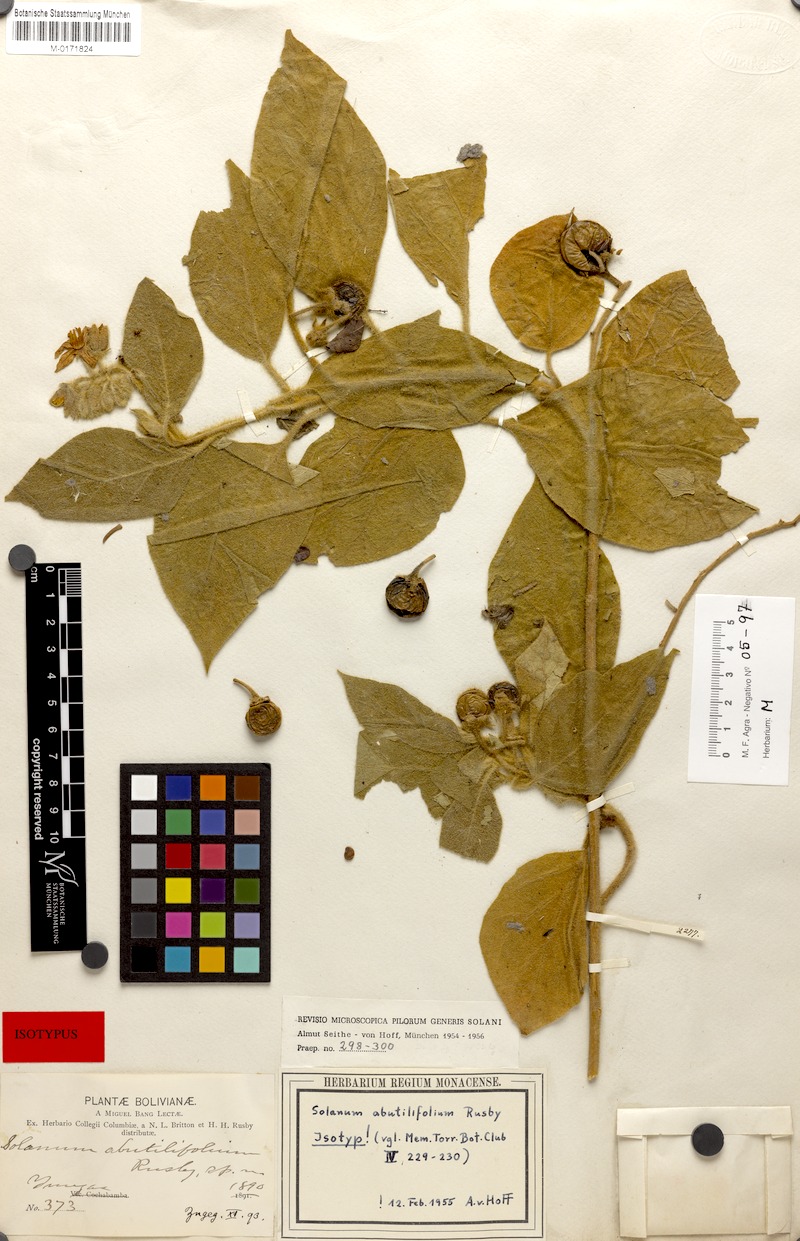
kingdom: Plantae
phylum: Tracheophyta
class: Magnoliopsida
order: Solanales
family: Solanaceae
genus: Solanum
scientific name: Solanum abutilifolium
